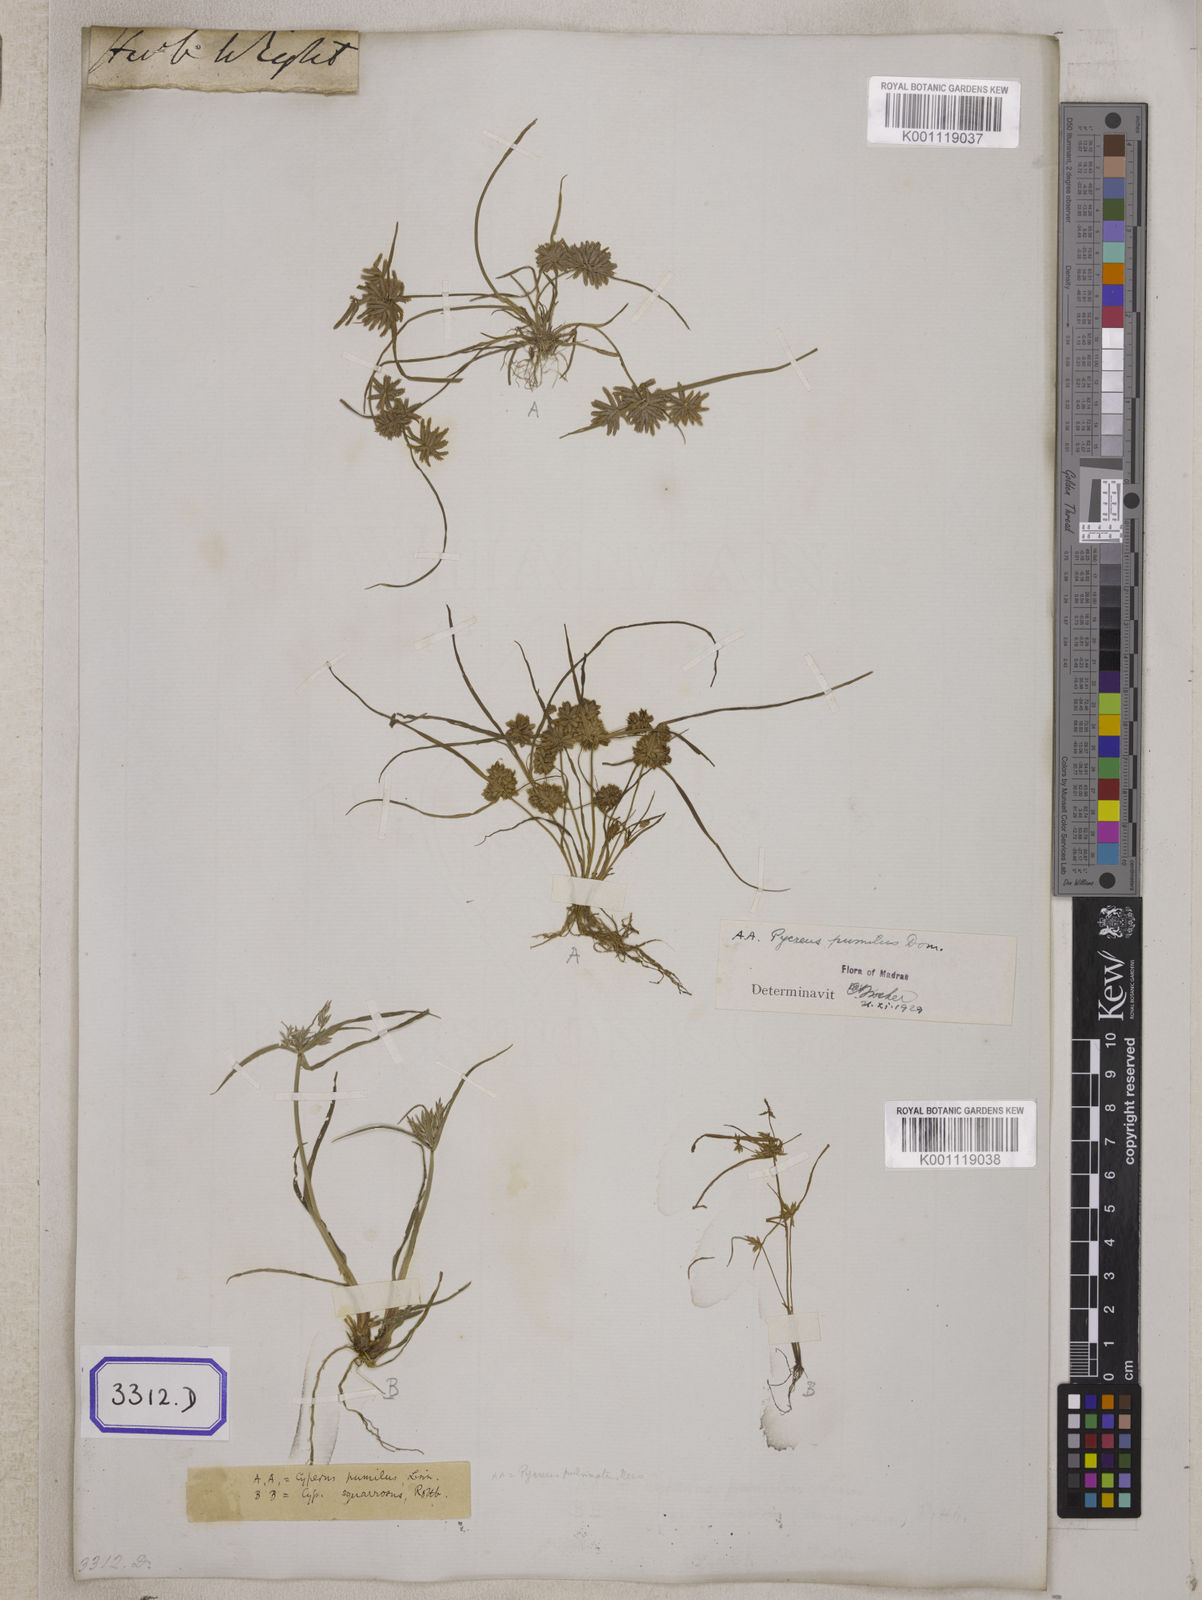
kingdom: Plantae
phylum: Tracheophyta
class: Liliopsida
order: Poales
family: Cyperaceae
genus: Cyperus
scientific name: Cyperus
